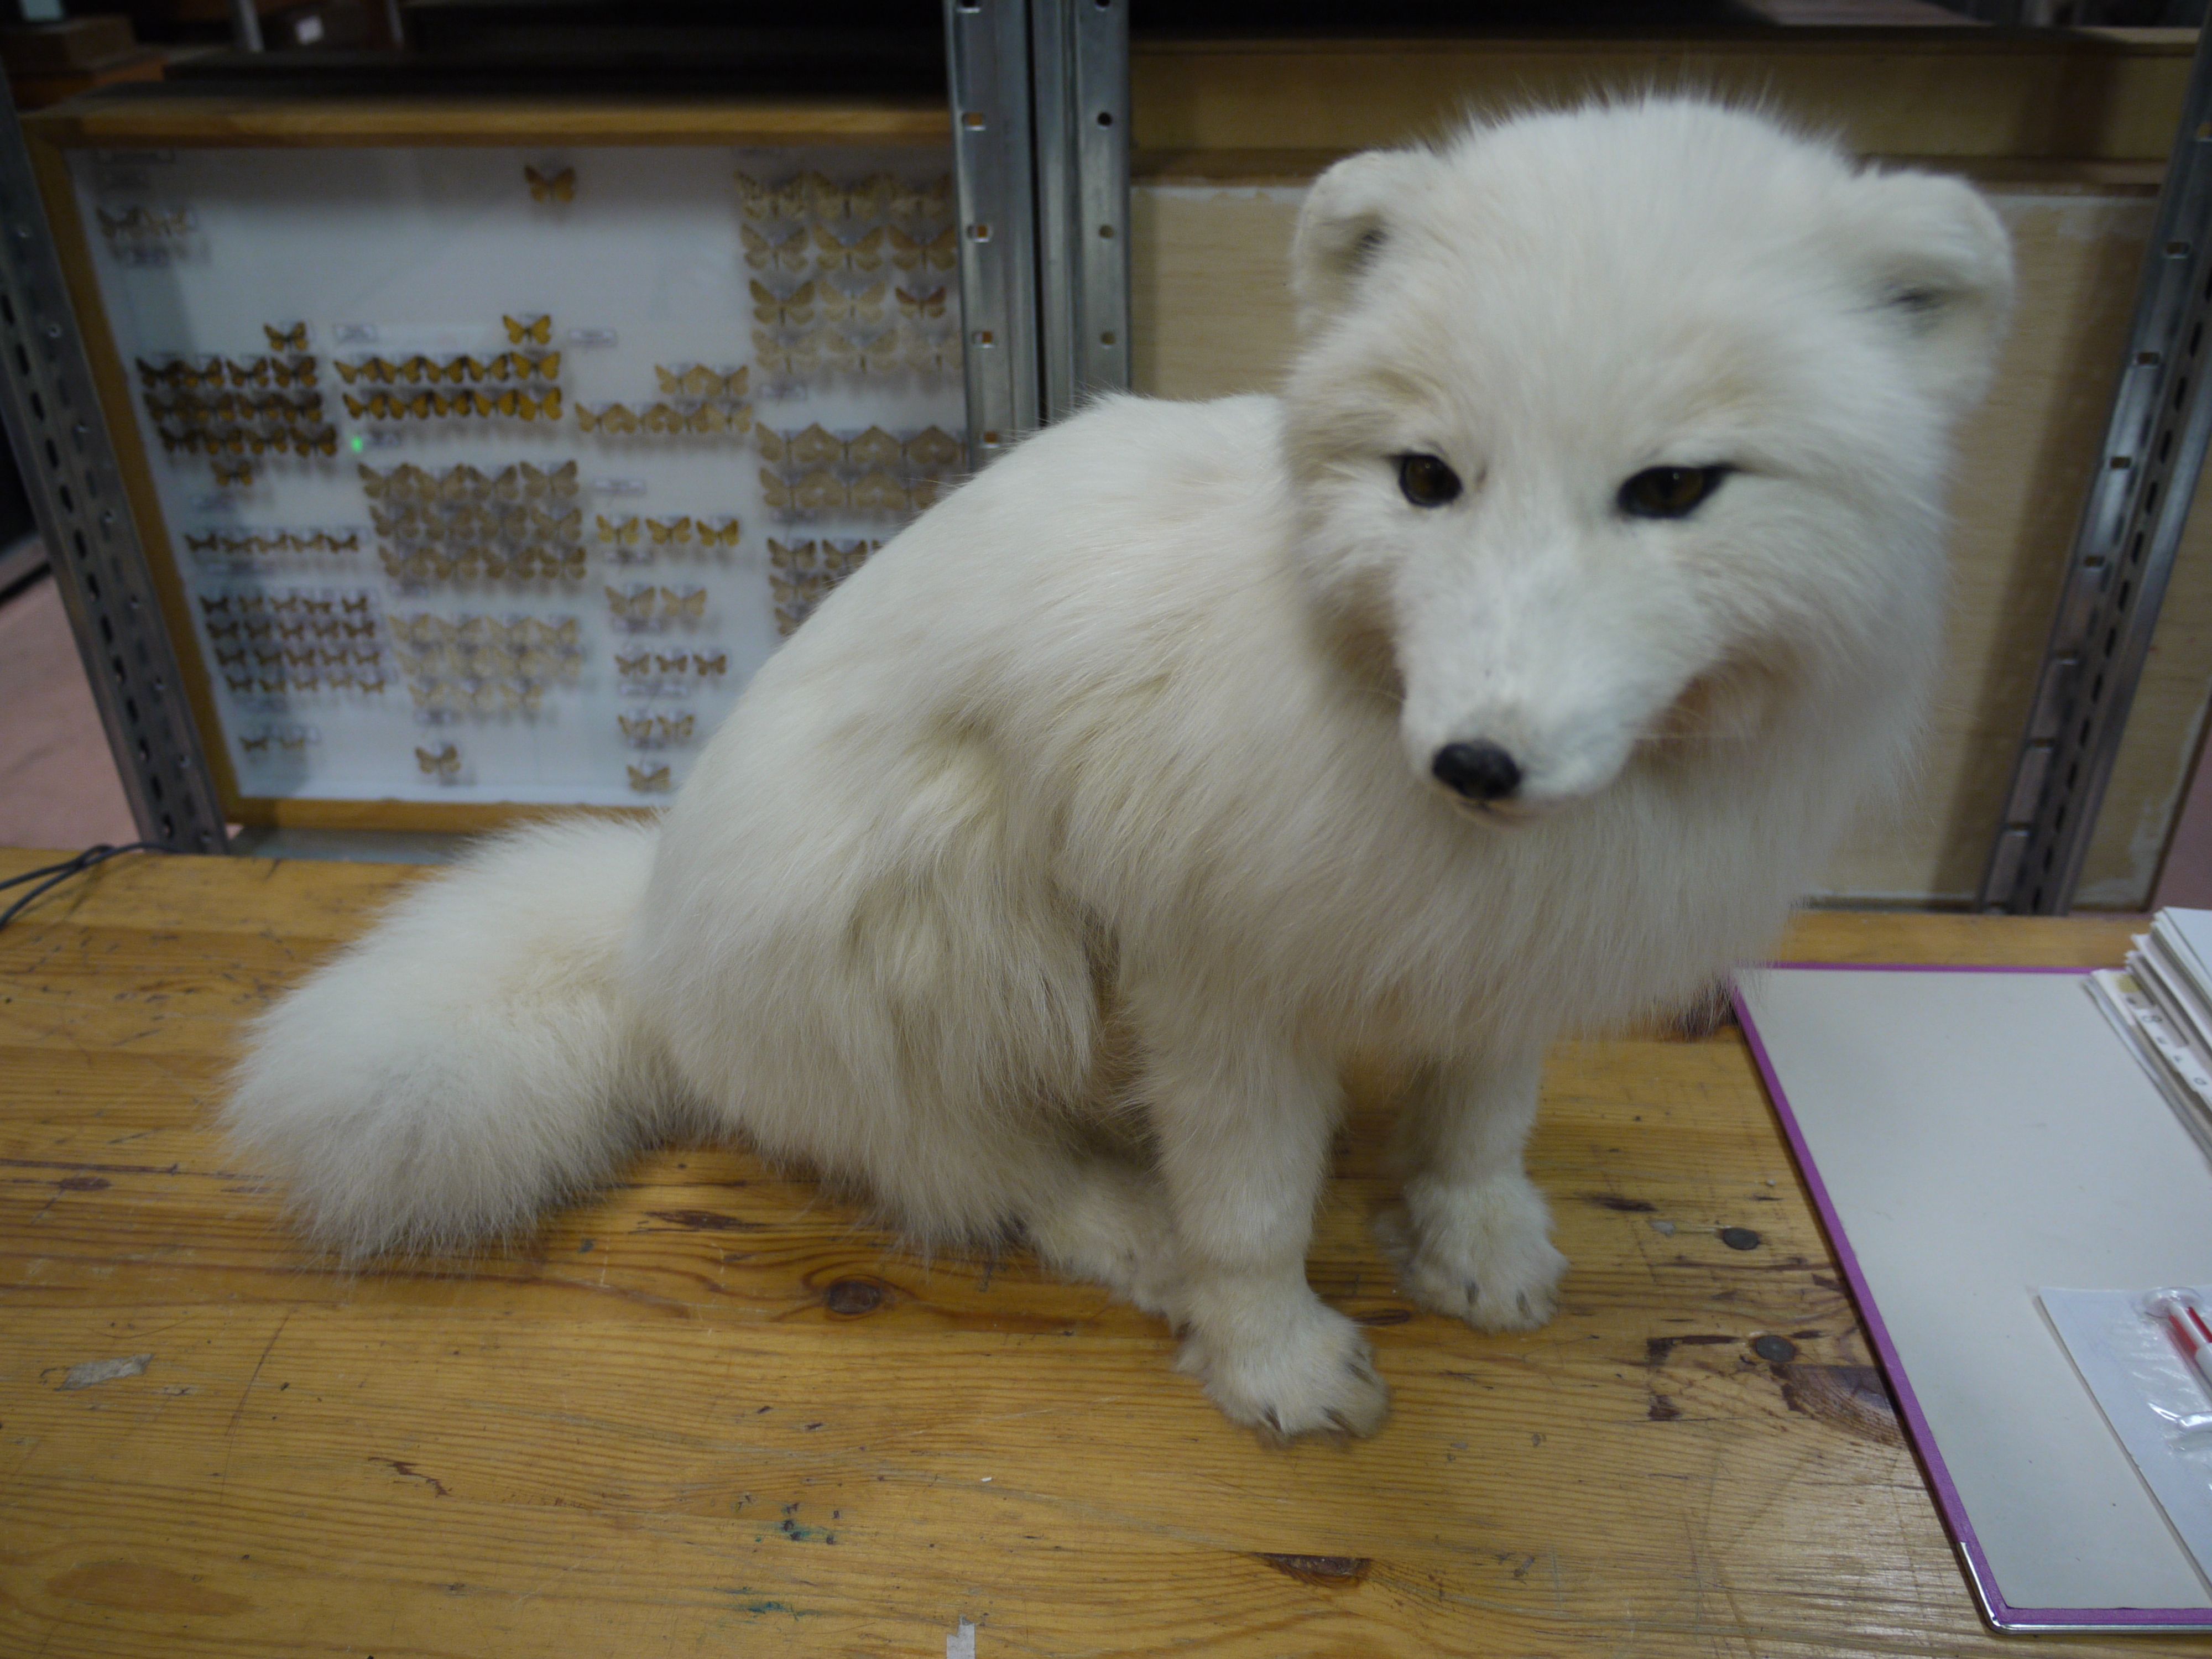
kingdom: Animalia
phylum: Chordata
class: Mammalia
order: Carnivora
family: Canidae
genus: Vulpes
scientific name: Vulpes lagopus
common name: Arctic fox
